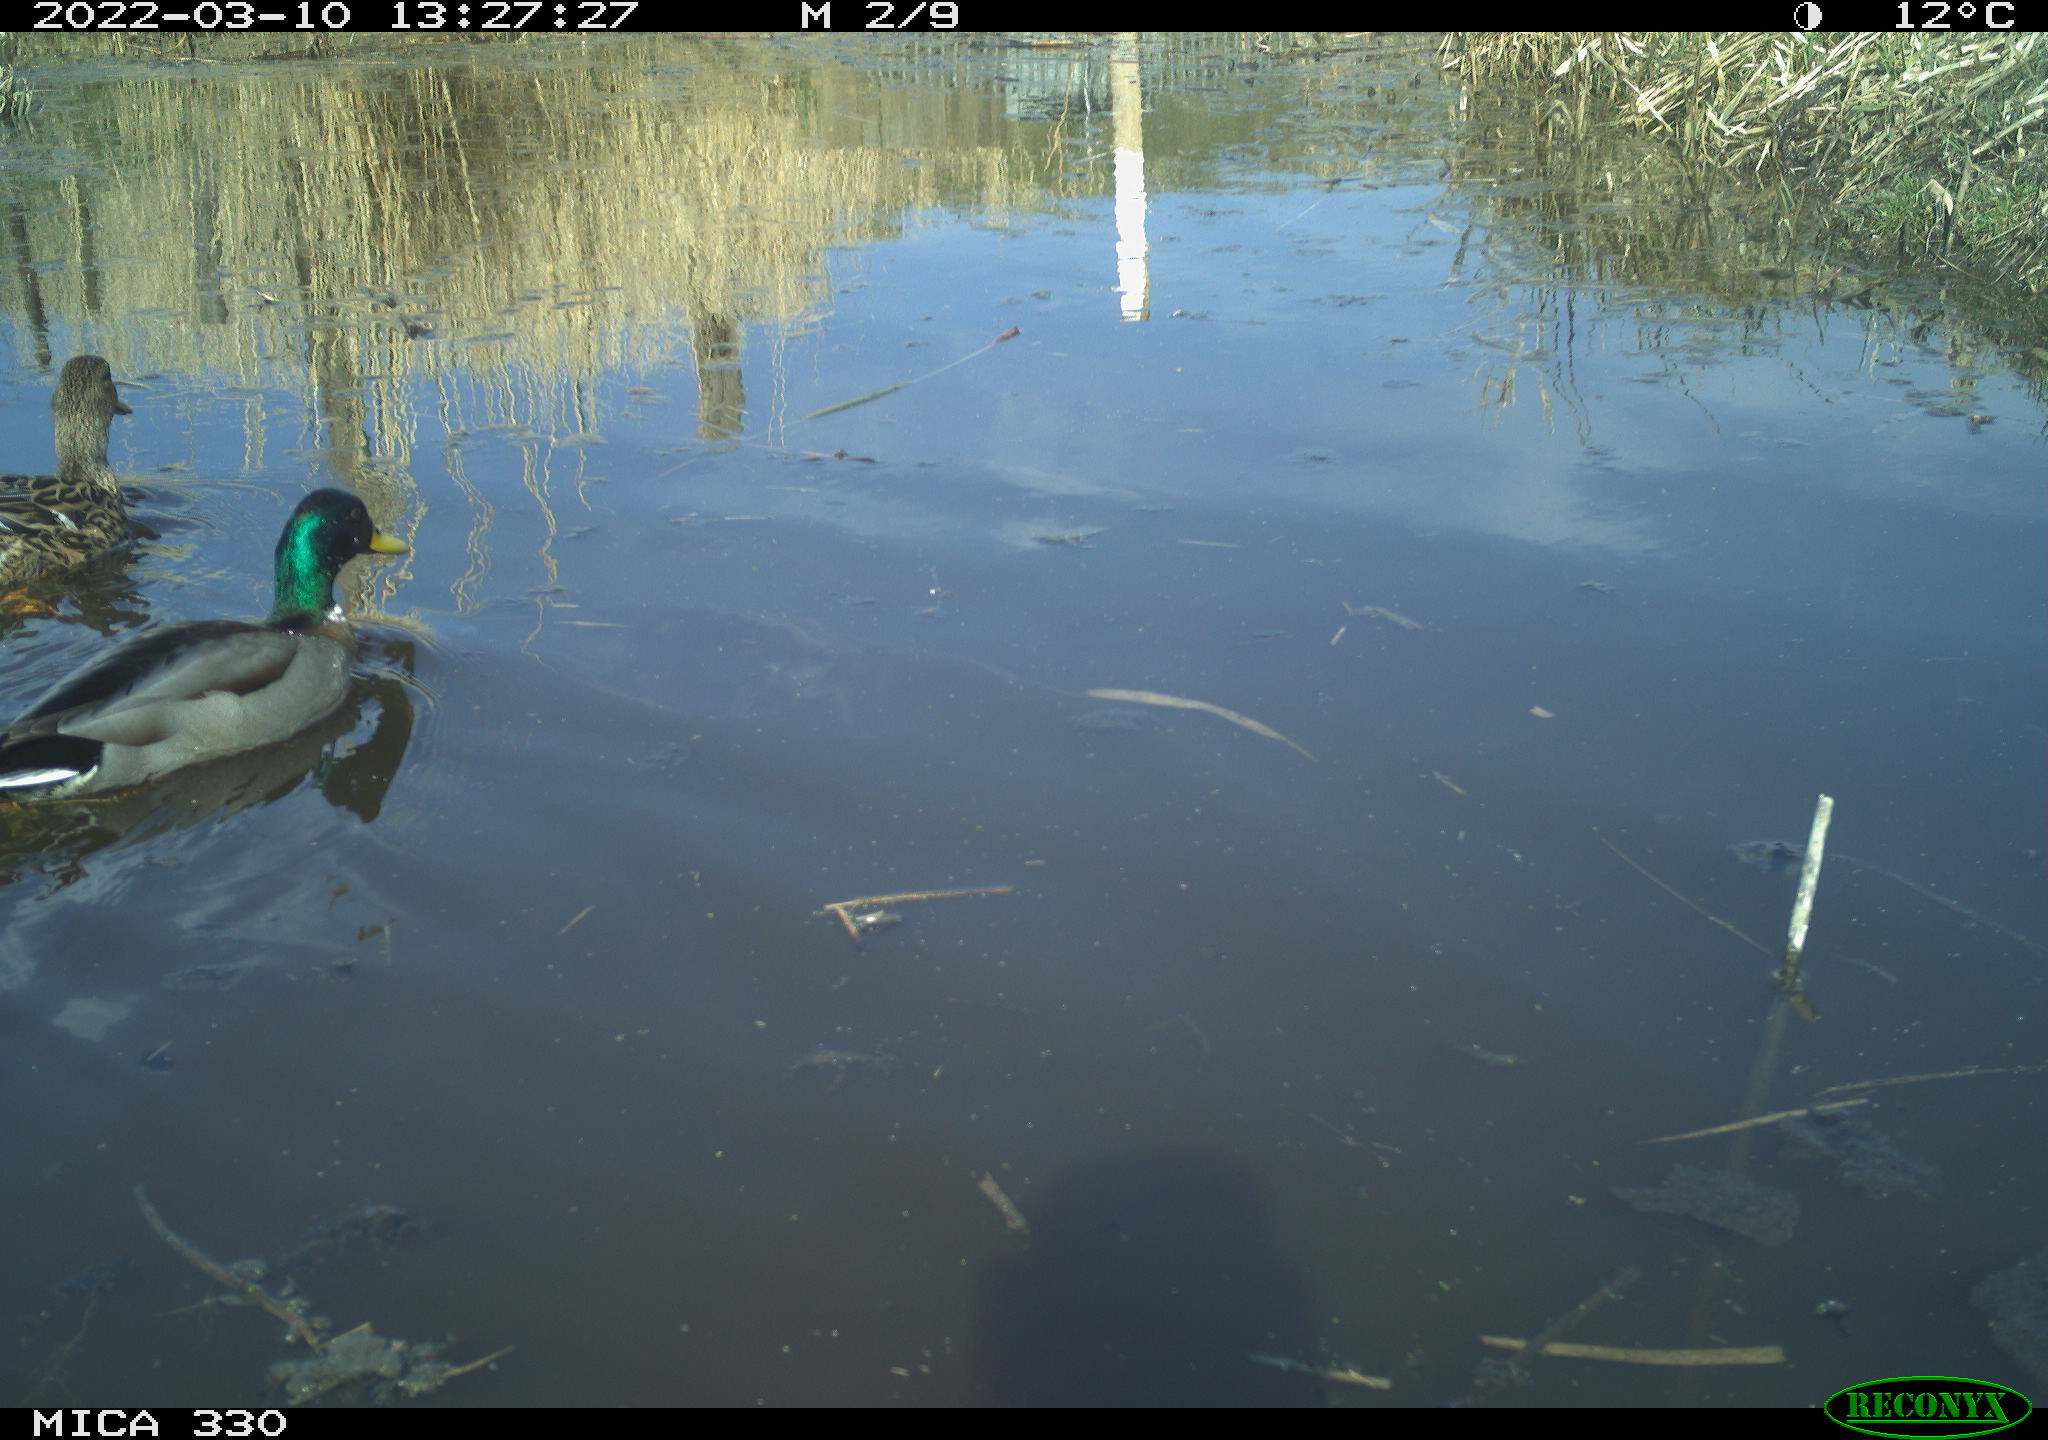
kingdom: Animalia
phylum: Chordata
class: Aves
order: Anseriformes
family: Anatidae
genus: Anas
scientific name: Anas platyrhynchos
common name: Mallard
